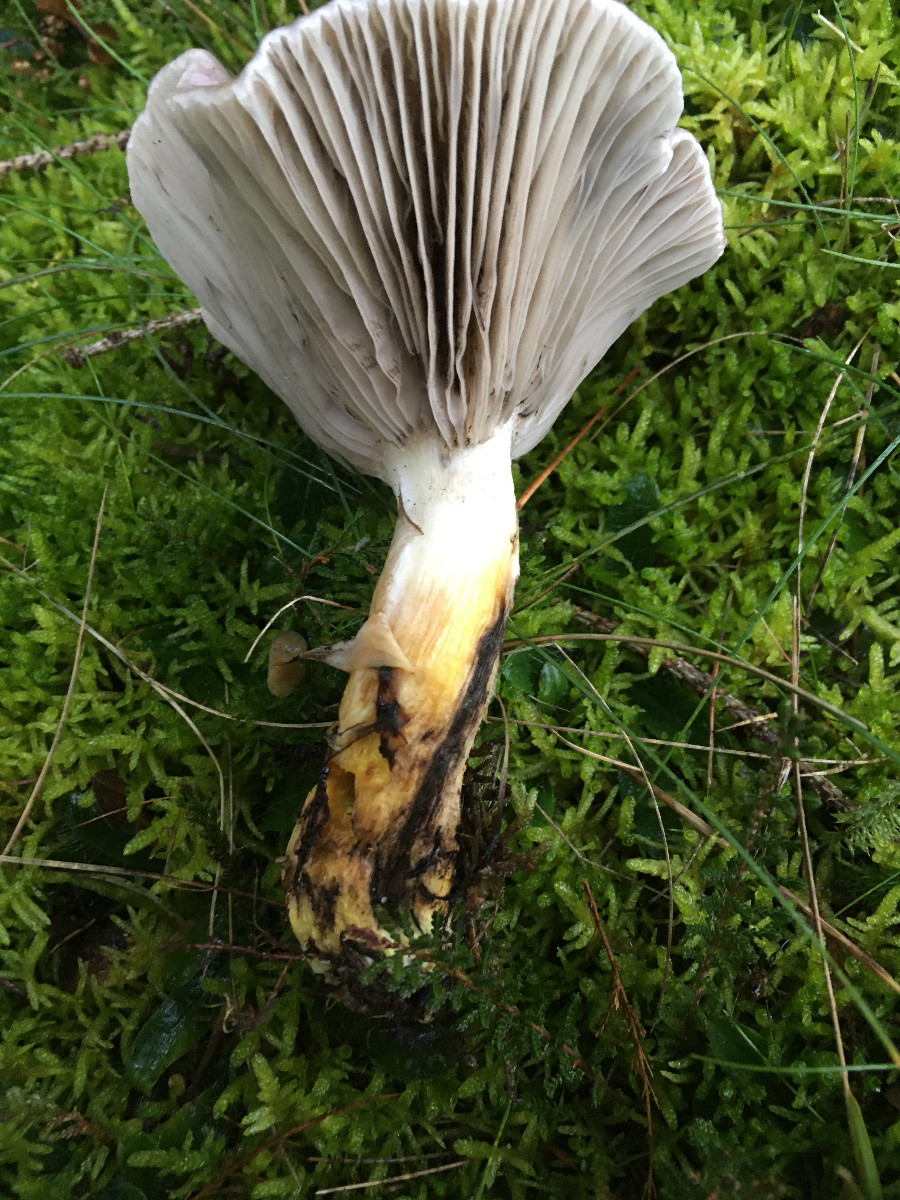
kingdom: Fungi
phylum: Basidiomycota
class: Agaricomycetes
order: Boletales
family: Gomphidiaceae
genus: Gomphidius
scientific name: Gomphidius glutinosus
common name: grå slimslør
